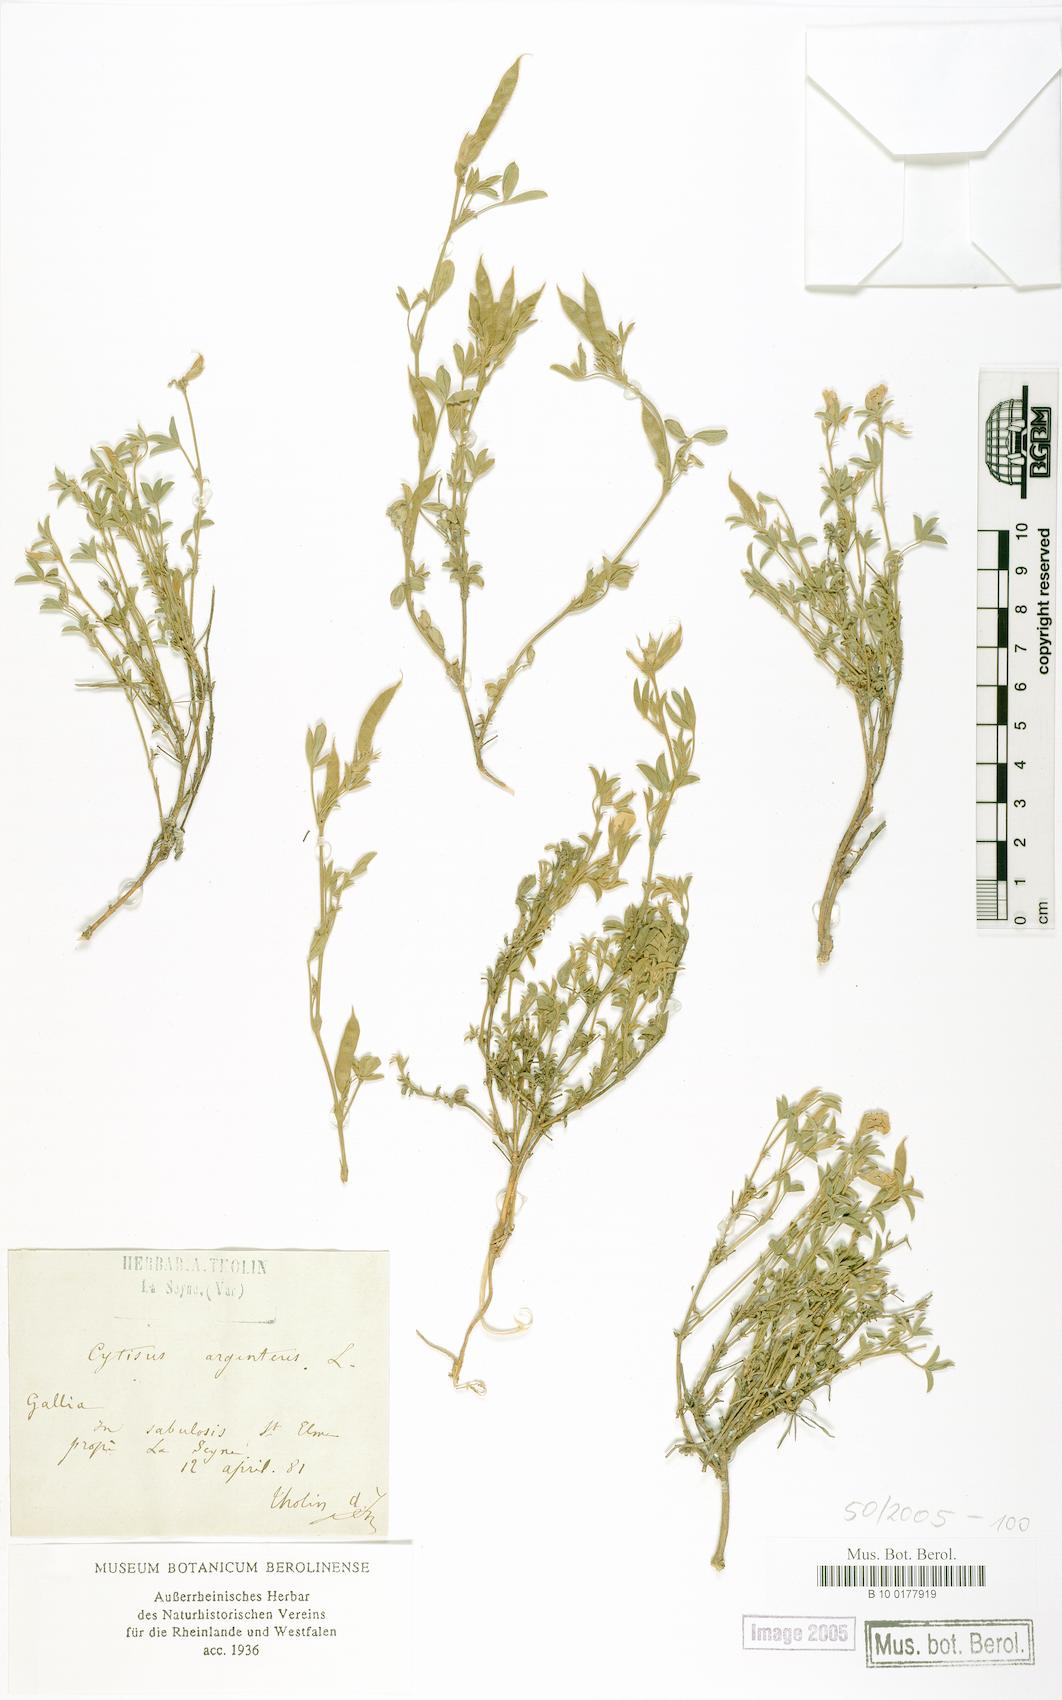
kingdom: Plantae
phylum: Tracheophyta
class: Magnoliopsida
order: Fabales
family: Fabaceae
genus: Argyrolobium
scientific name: Argyrolobium zanonii
